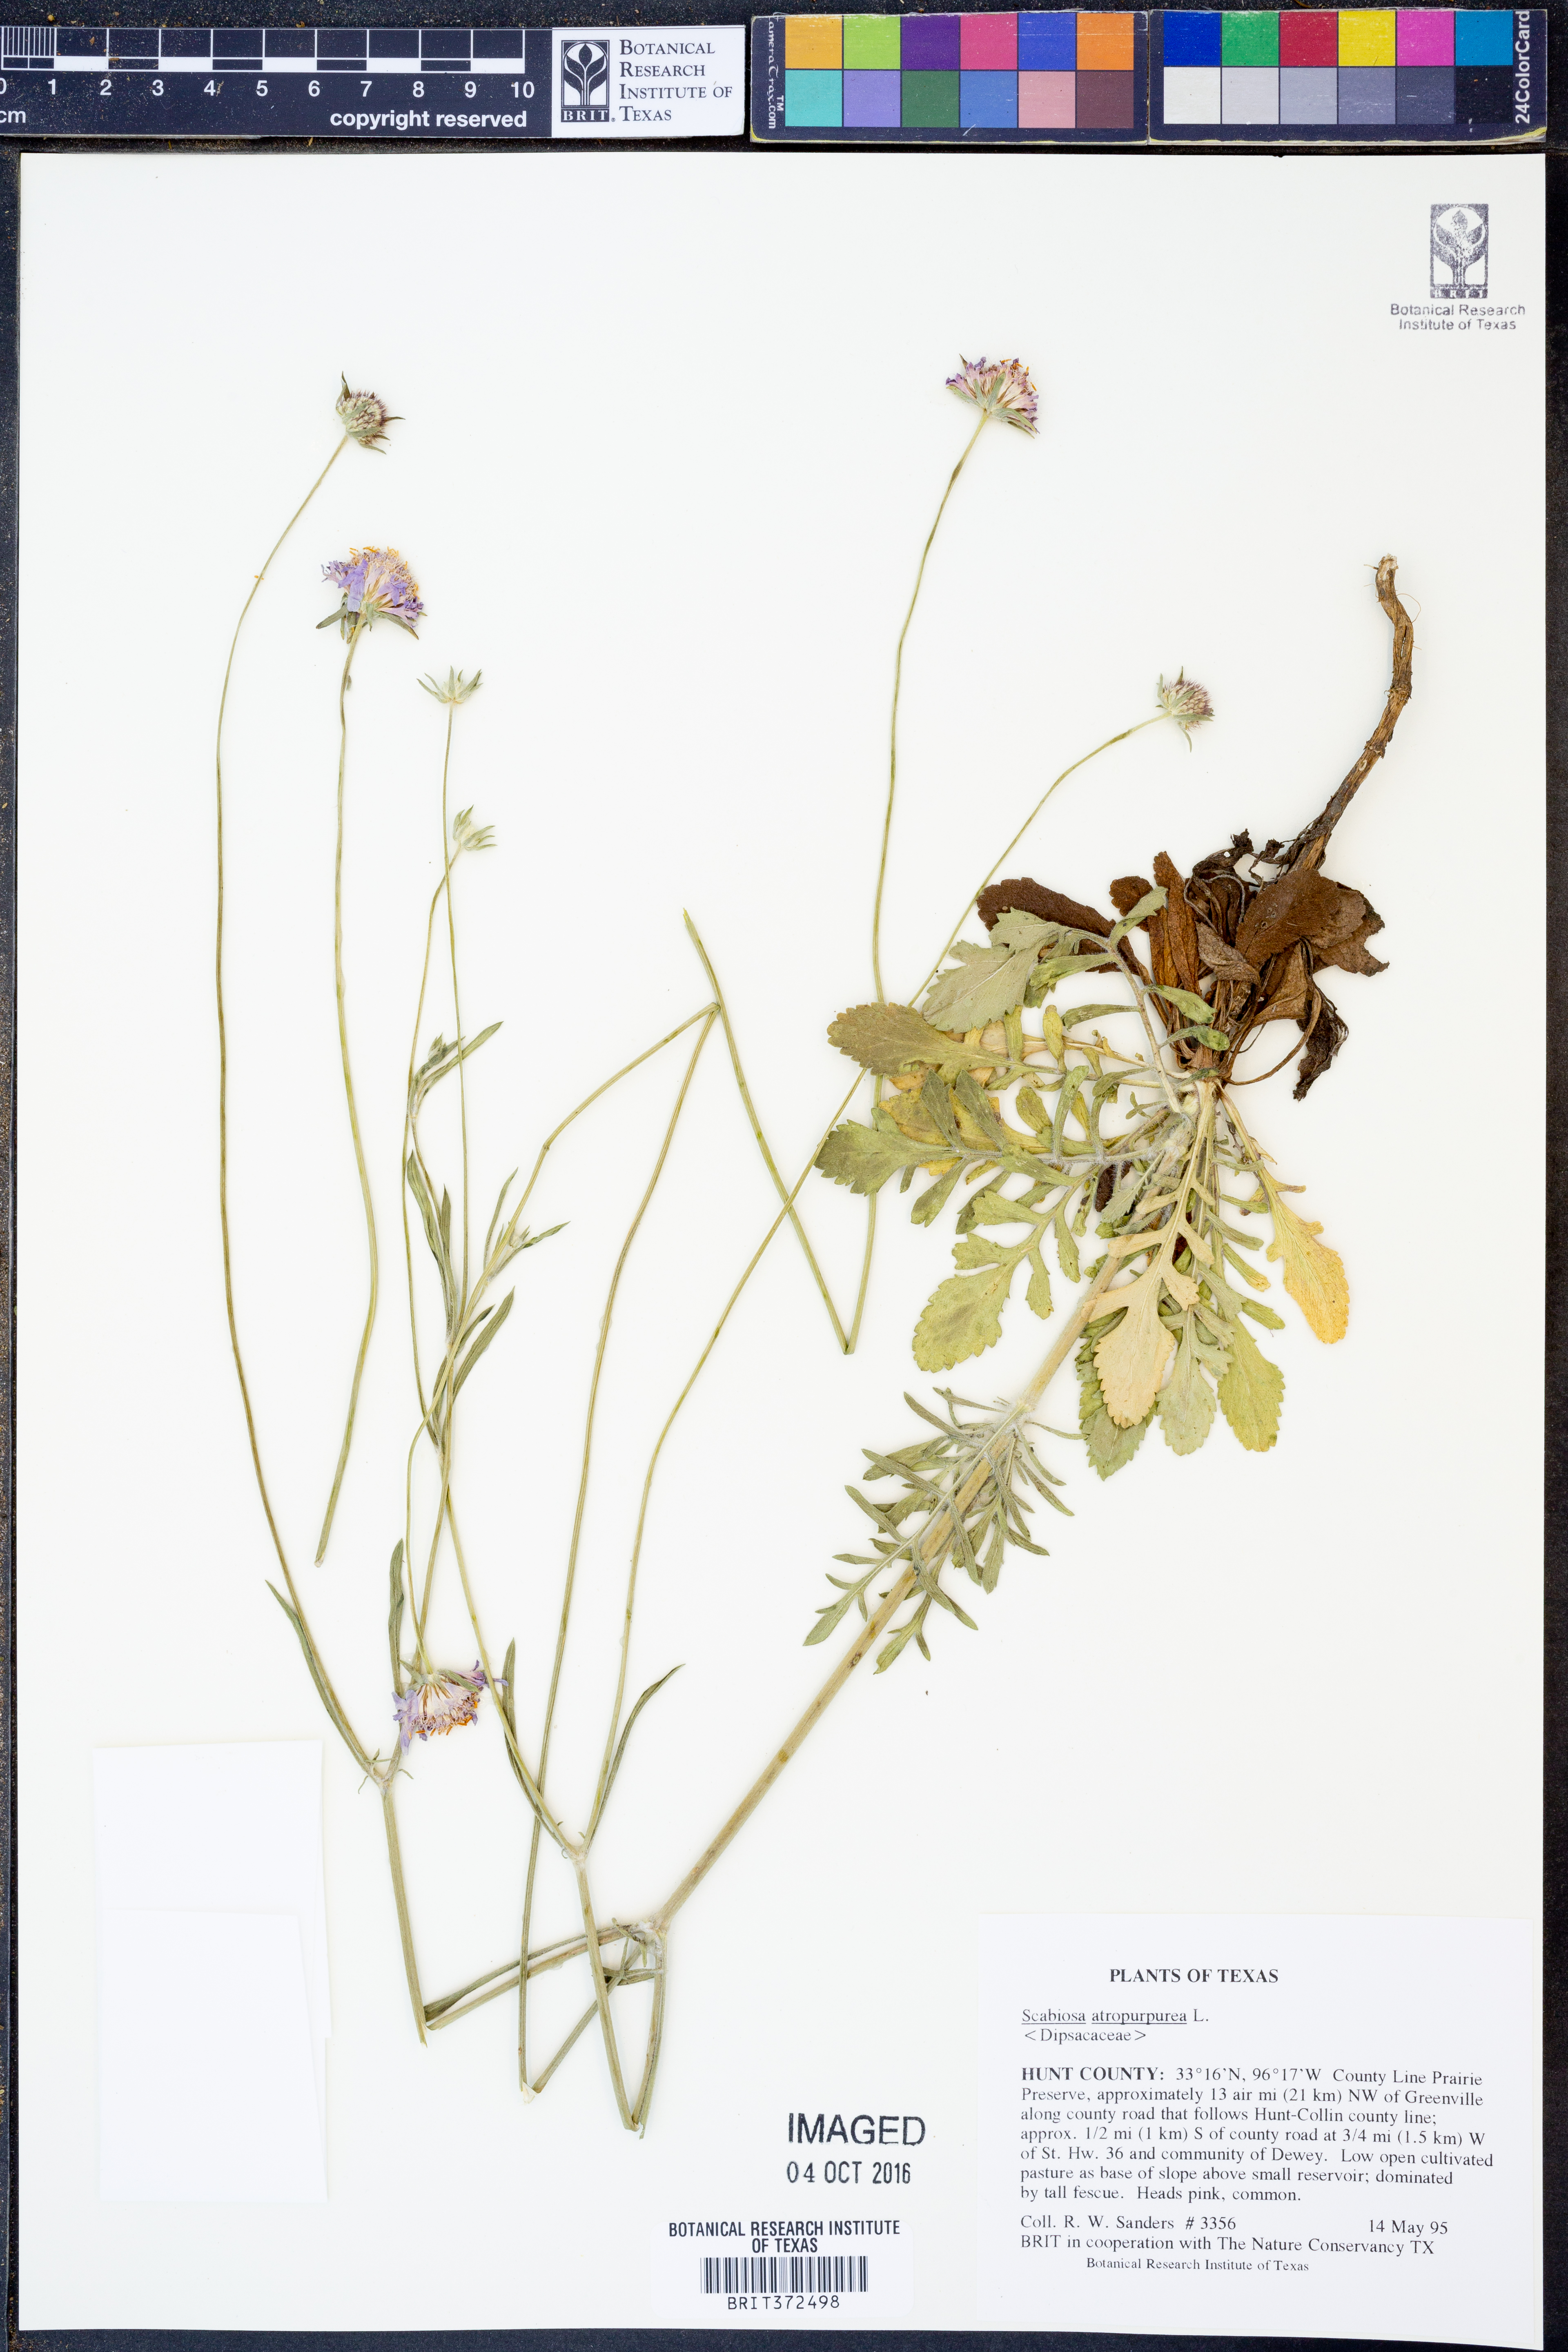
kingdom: Plantae
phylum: Tracheophyta
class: Magnoliopsida
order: Dipsacales
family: Caprifoliaceae
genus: Sixalix
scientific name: Sixalix atropurpurea
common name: Sweet scabious
